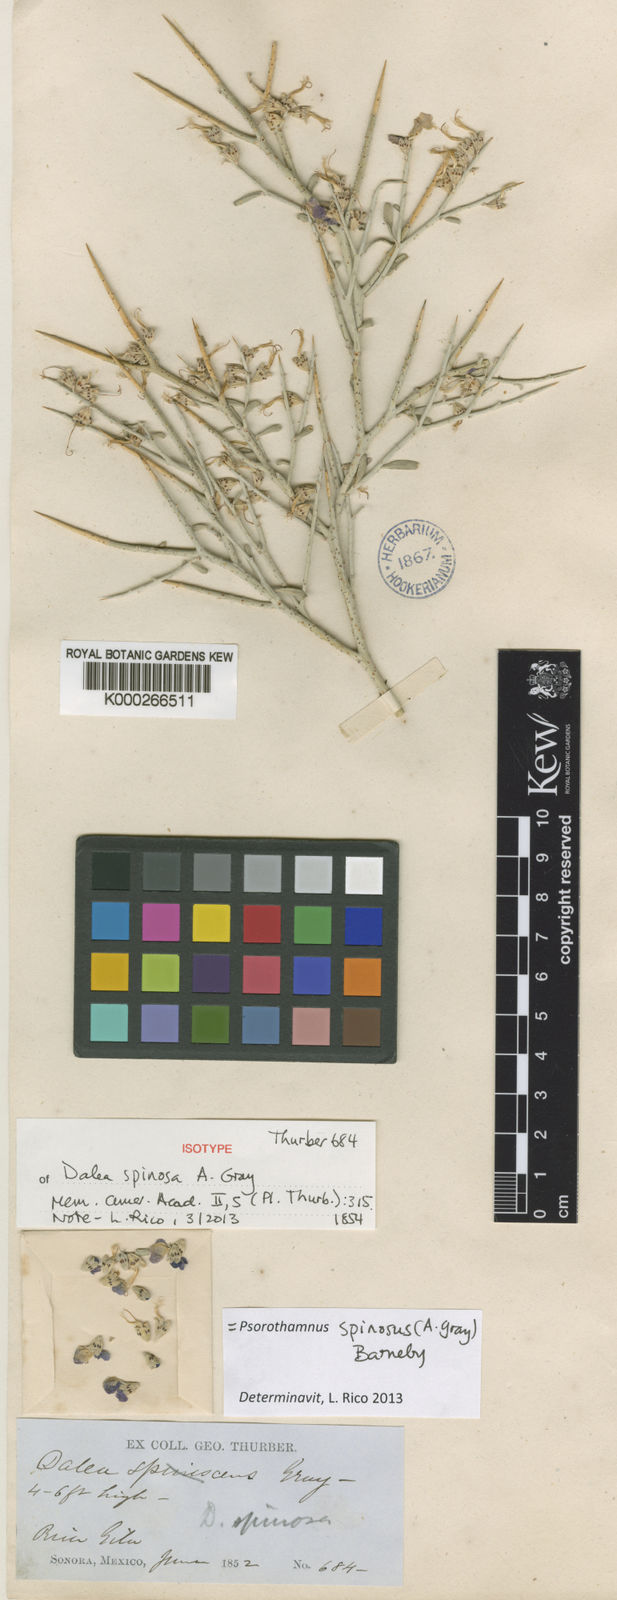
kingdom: Plantae
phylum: Tracheophyta
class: Magnoliopsida
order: Fabales
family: Fabaceae
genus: Psorothamnus
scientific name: Psorothamnus spinosus
